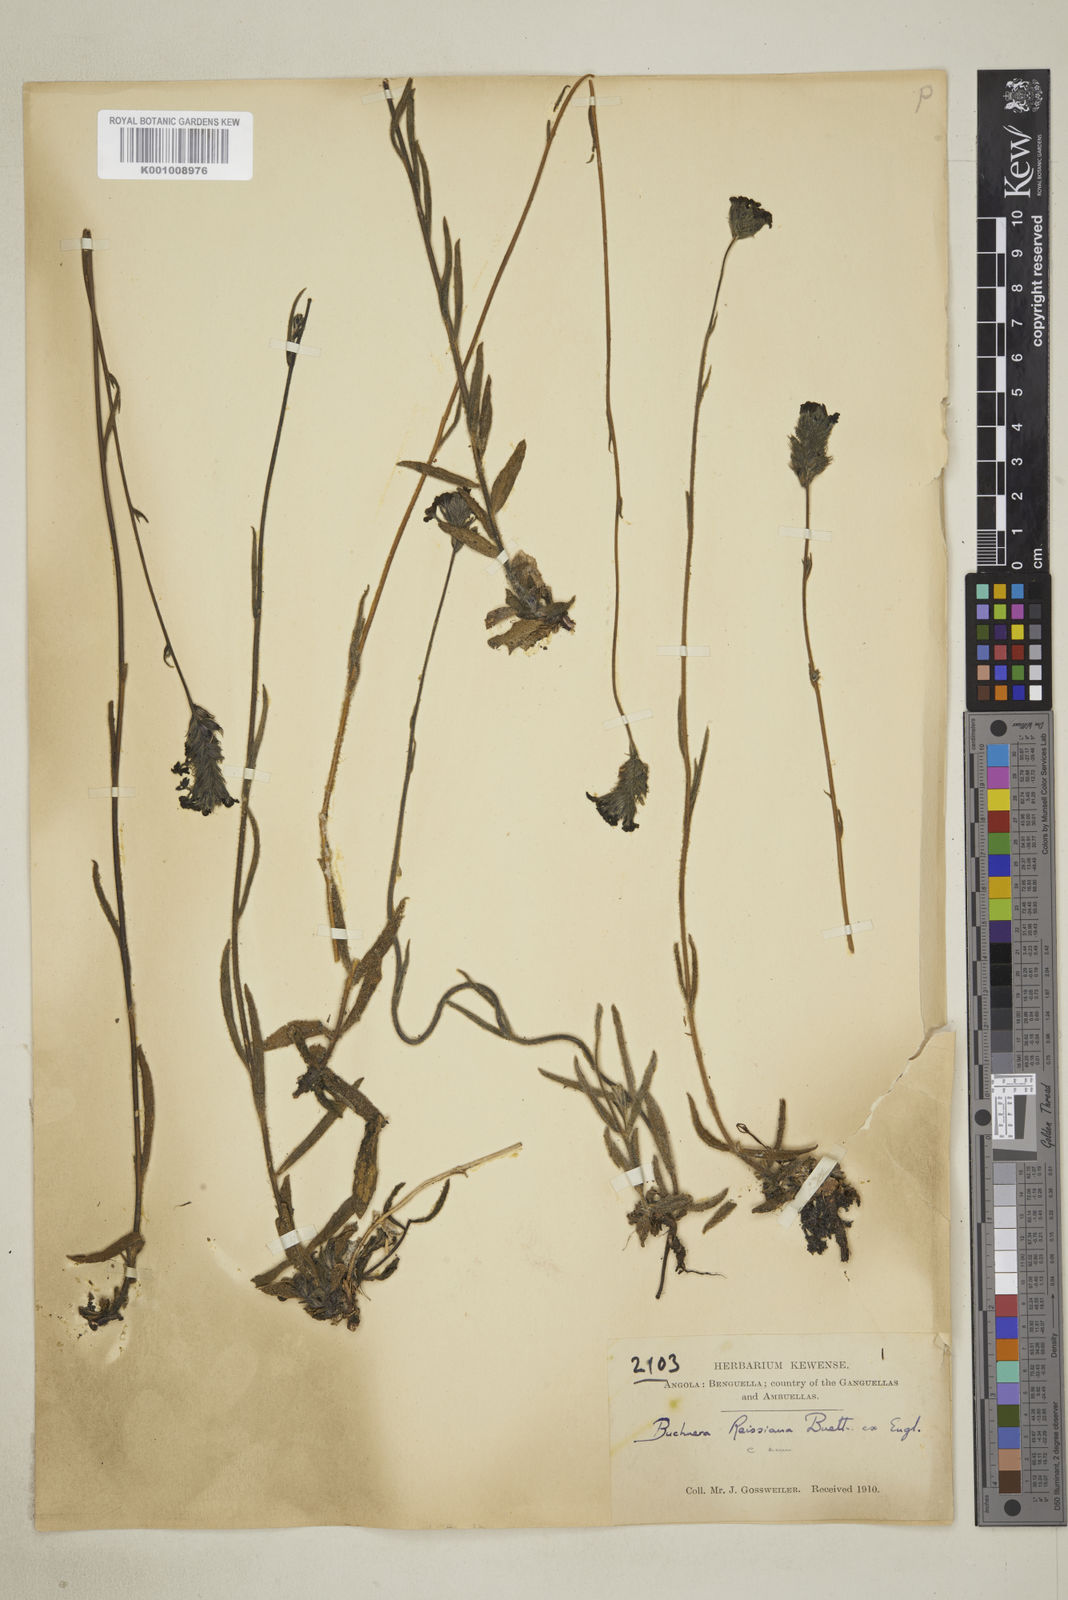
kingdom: Plantae
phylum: Tracheophyta
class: Magnoliopsida
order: Lamiales
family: Orobanchaceae
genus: Buchnera
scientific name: Buchnera
